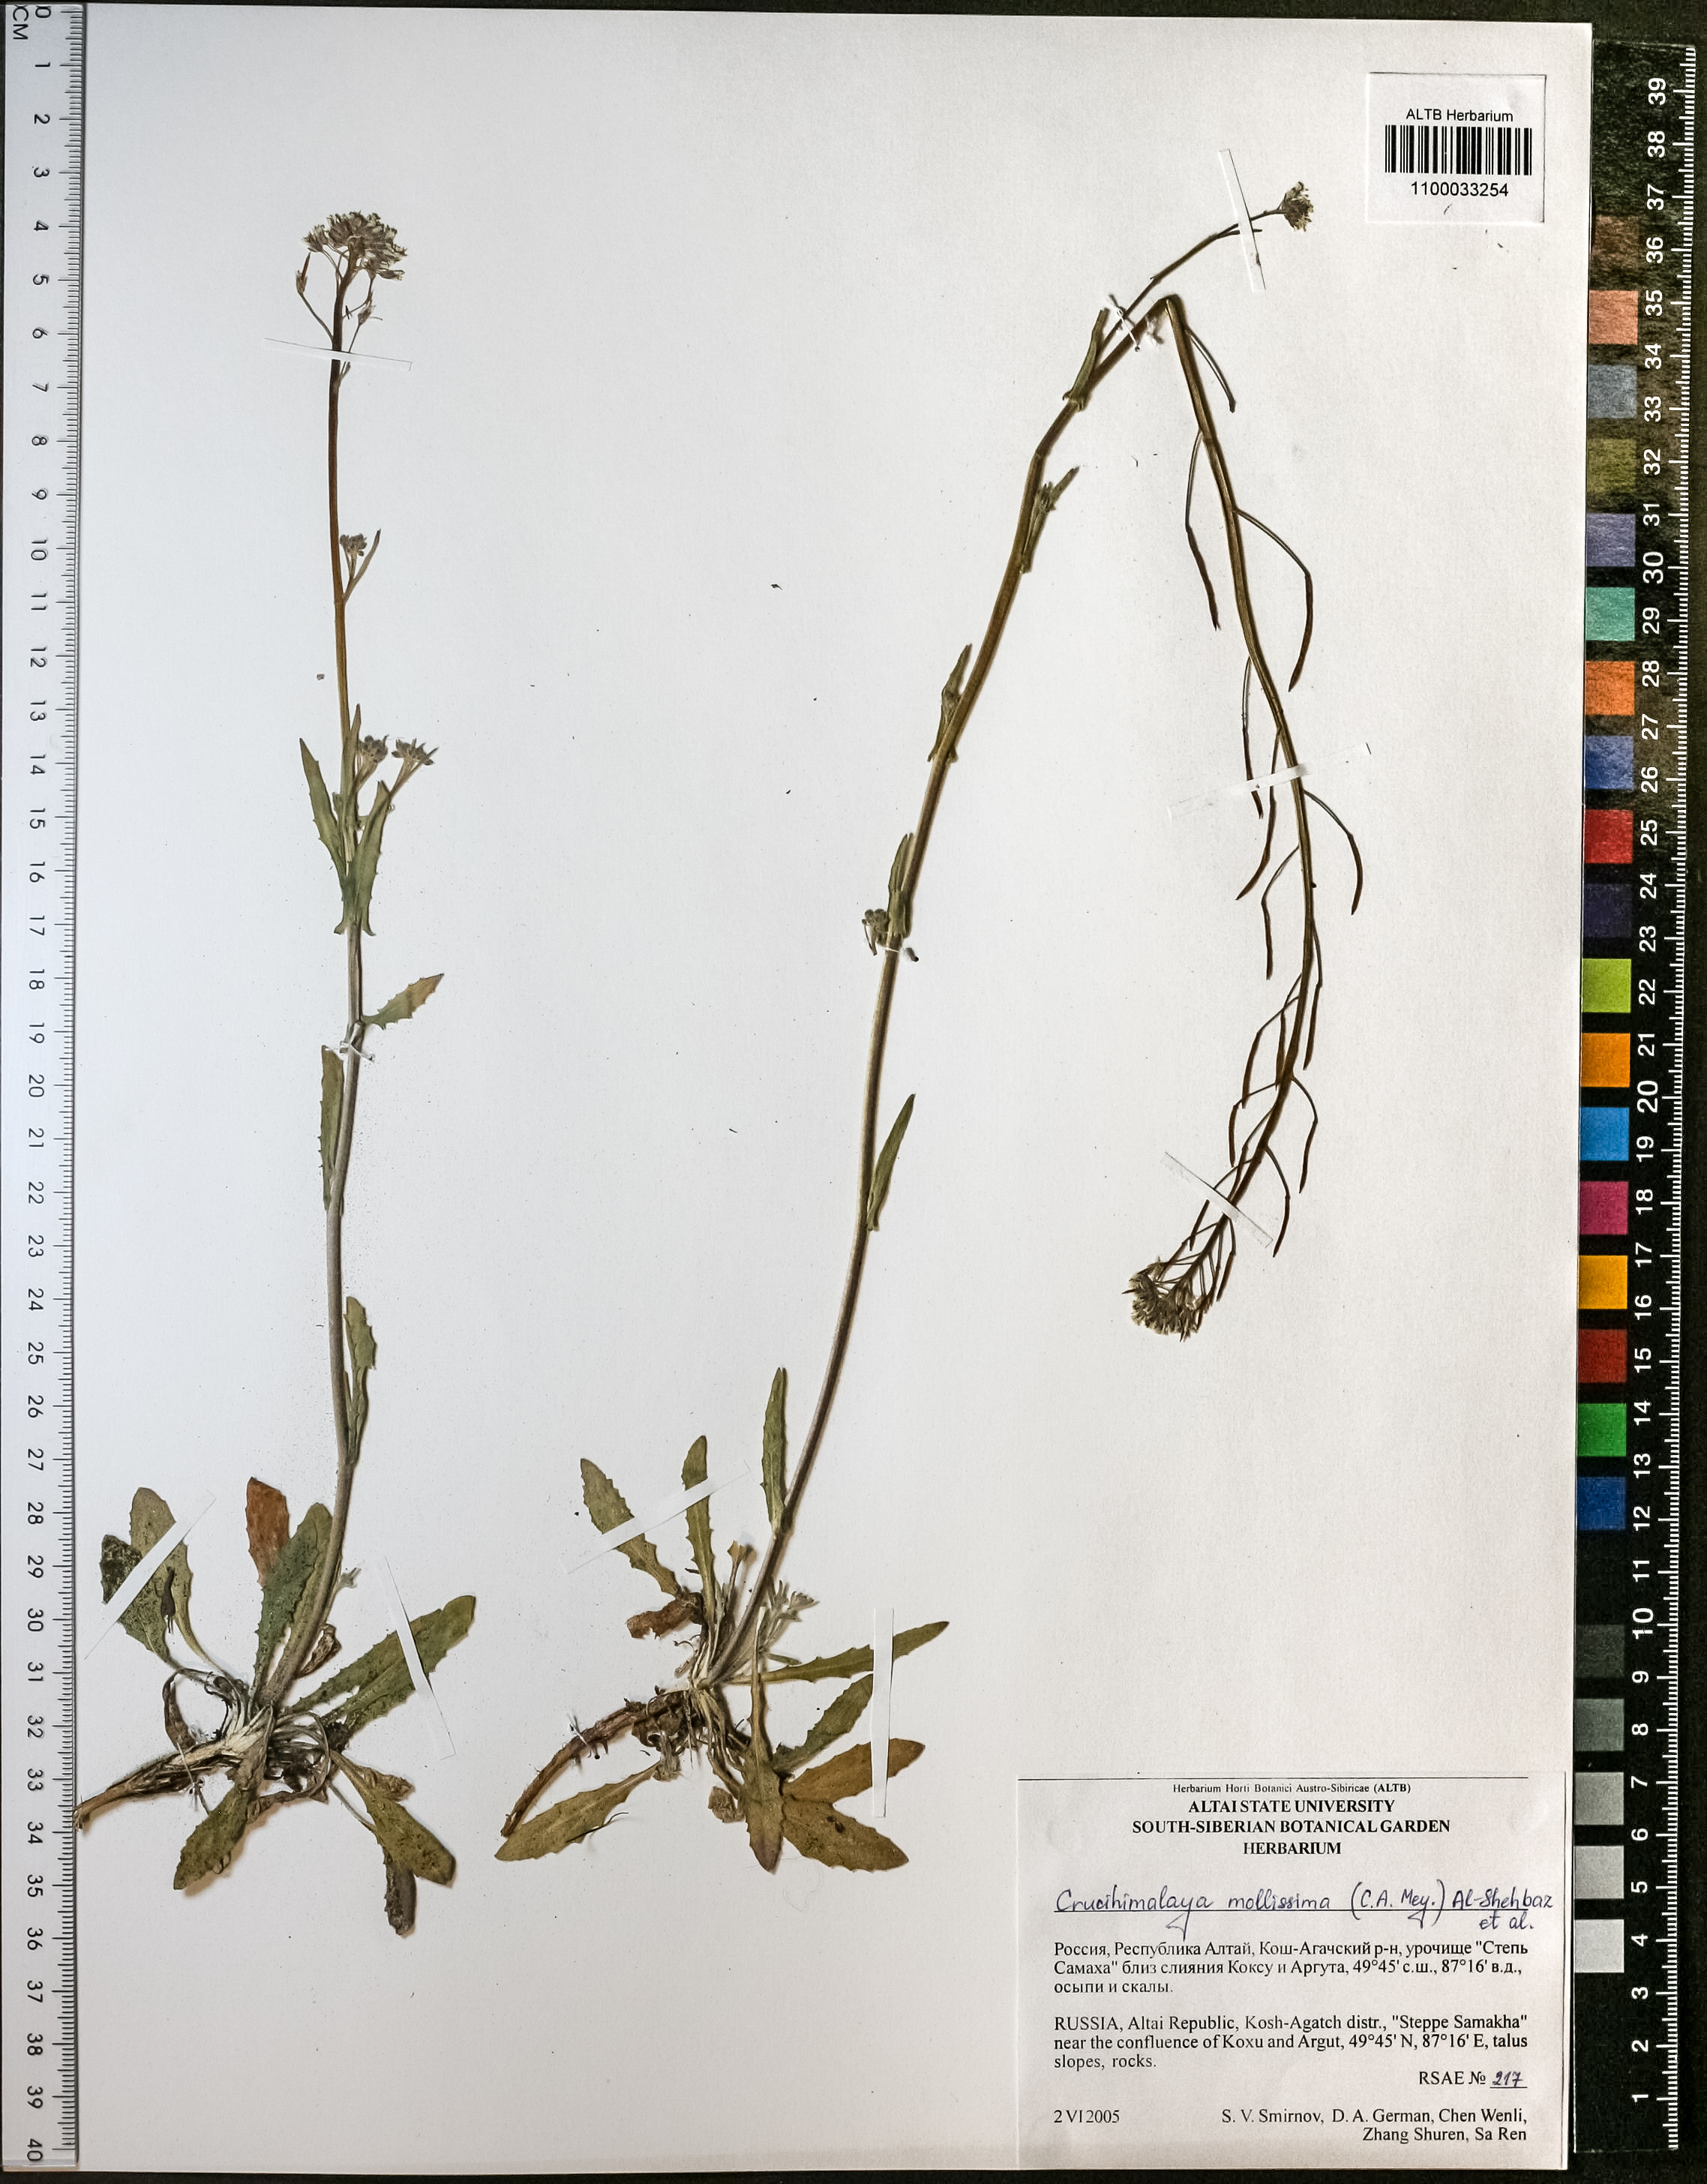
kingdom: Plantae
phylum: Tracheophyta
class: Magnoliopsida
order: Brassicales
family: Brassicaceae
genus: Crucihimalaya
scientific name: Crucihimalaya mollissima
